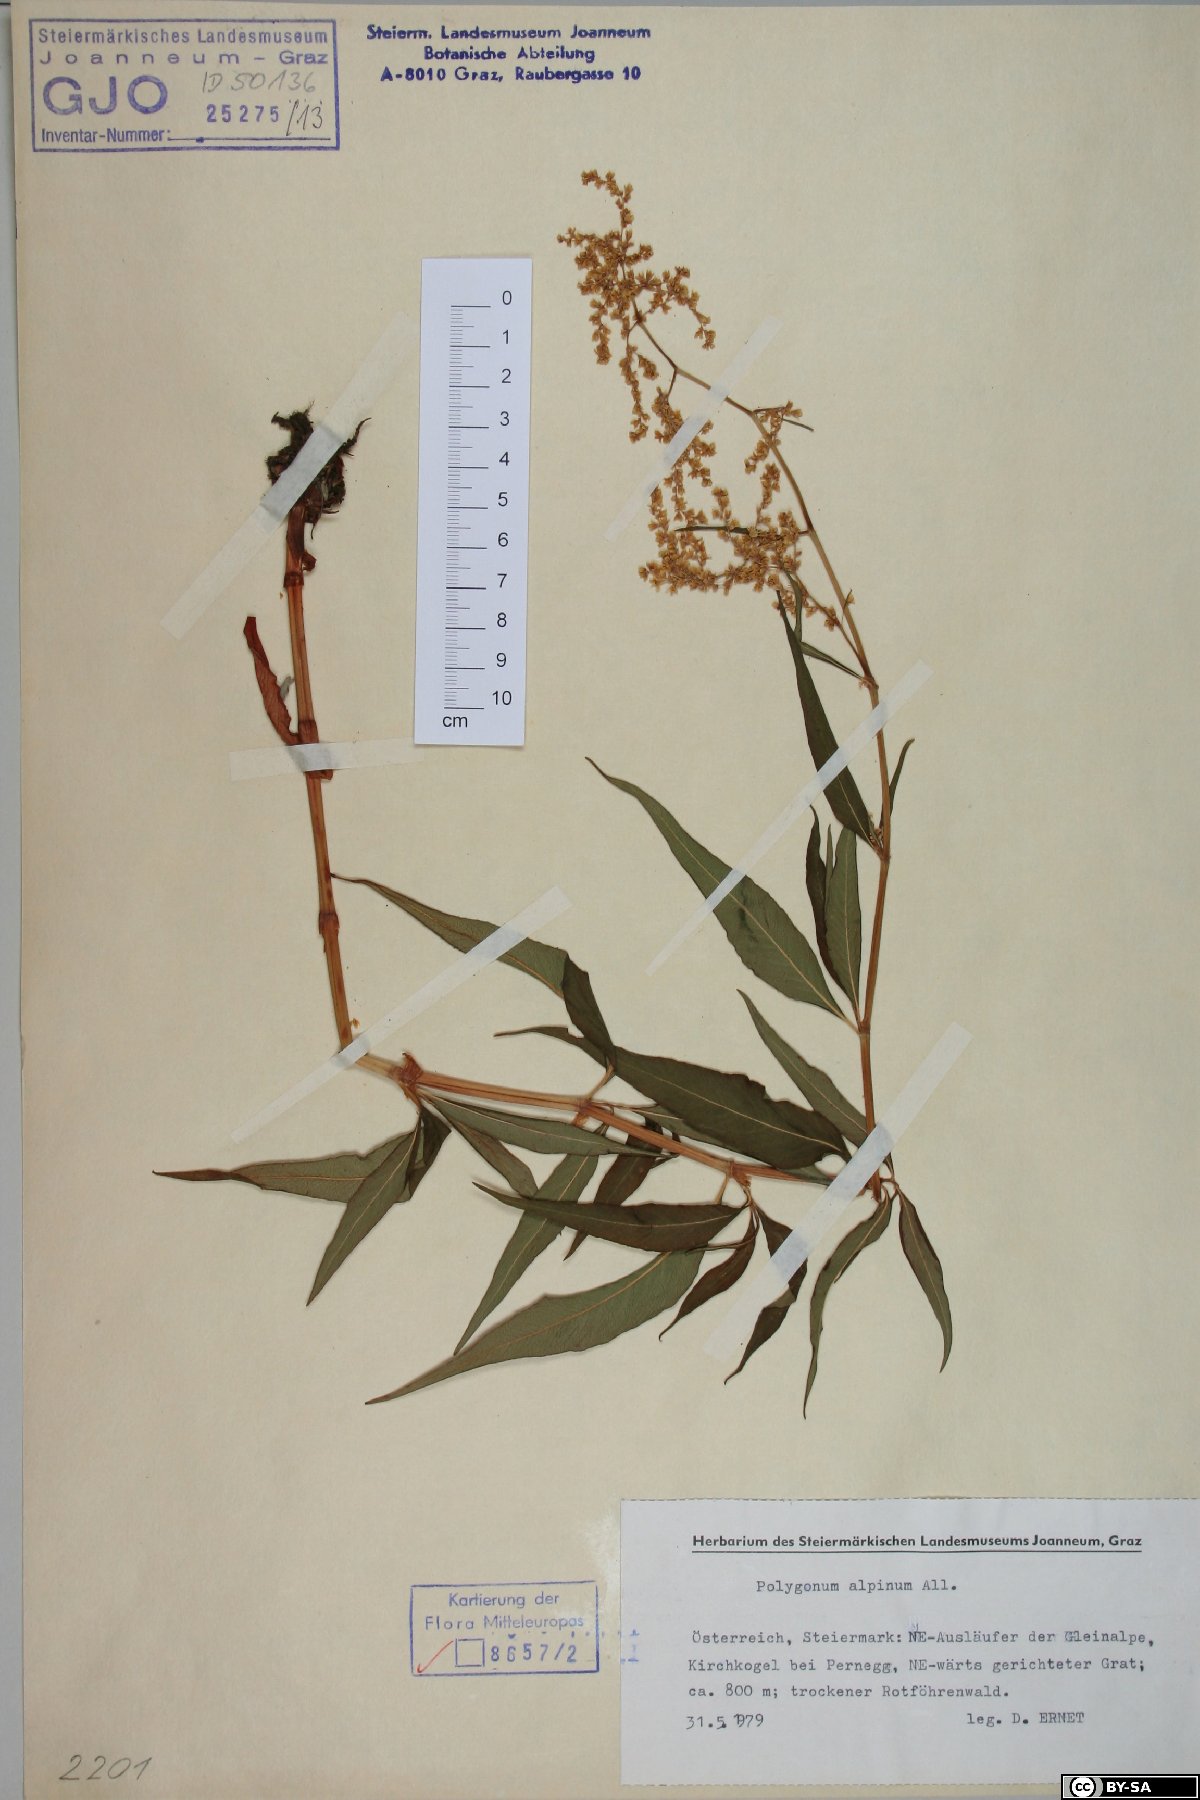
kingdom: Plantae
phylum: Tracheophyta
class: Magnoliopsida
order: Caryophyllales
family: Polygonaceae
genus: Koenigia
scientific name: Koenigia alpina
